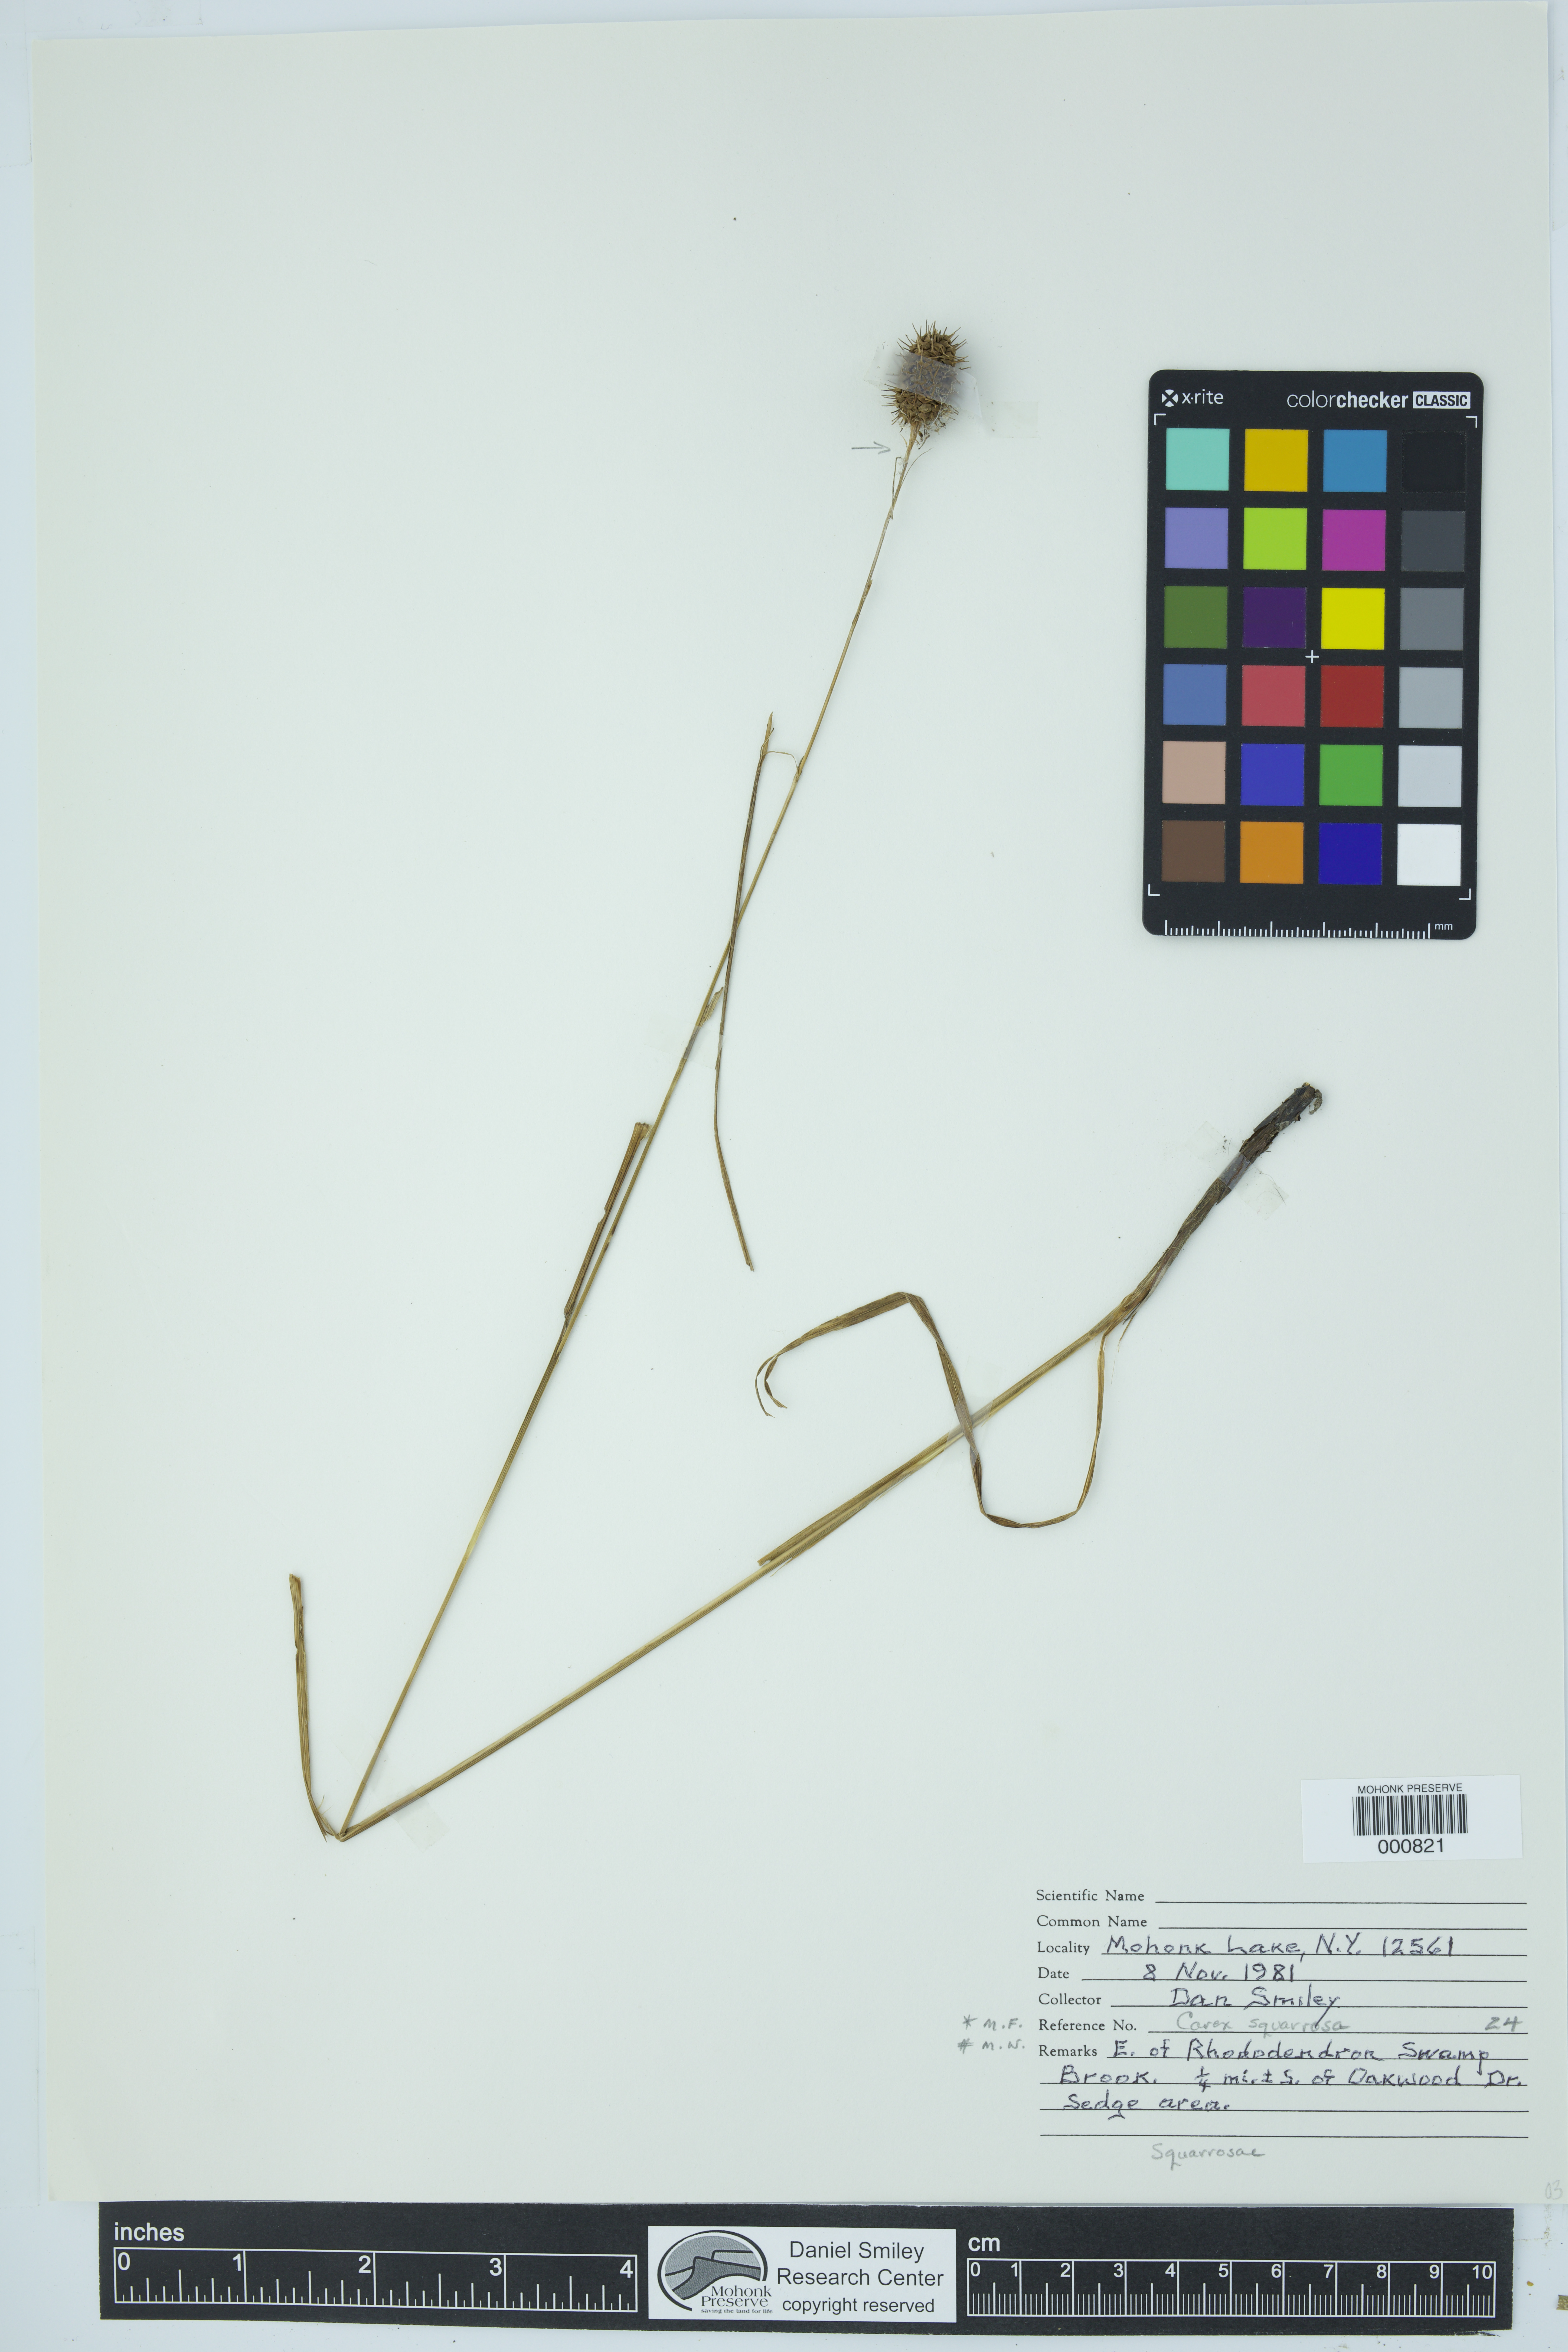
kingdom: Plantae
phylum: Tracheophyta
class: Liliopsida
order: Poales
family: Cyperaceae
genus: Carex
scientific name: Carex squarrosa
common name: Narrow-leaved cattail sedge
